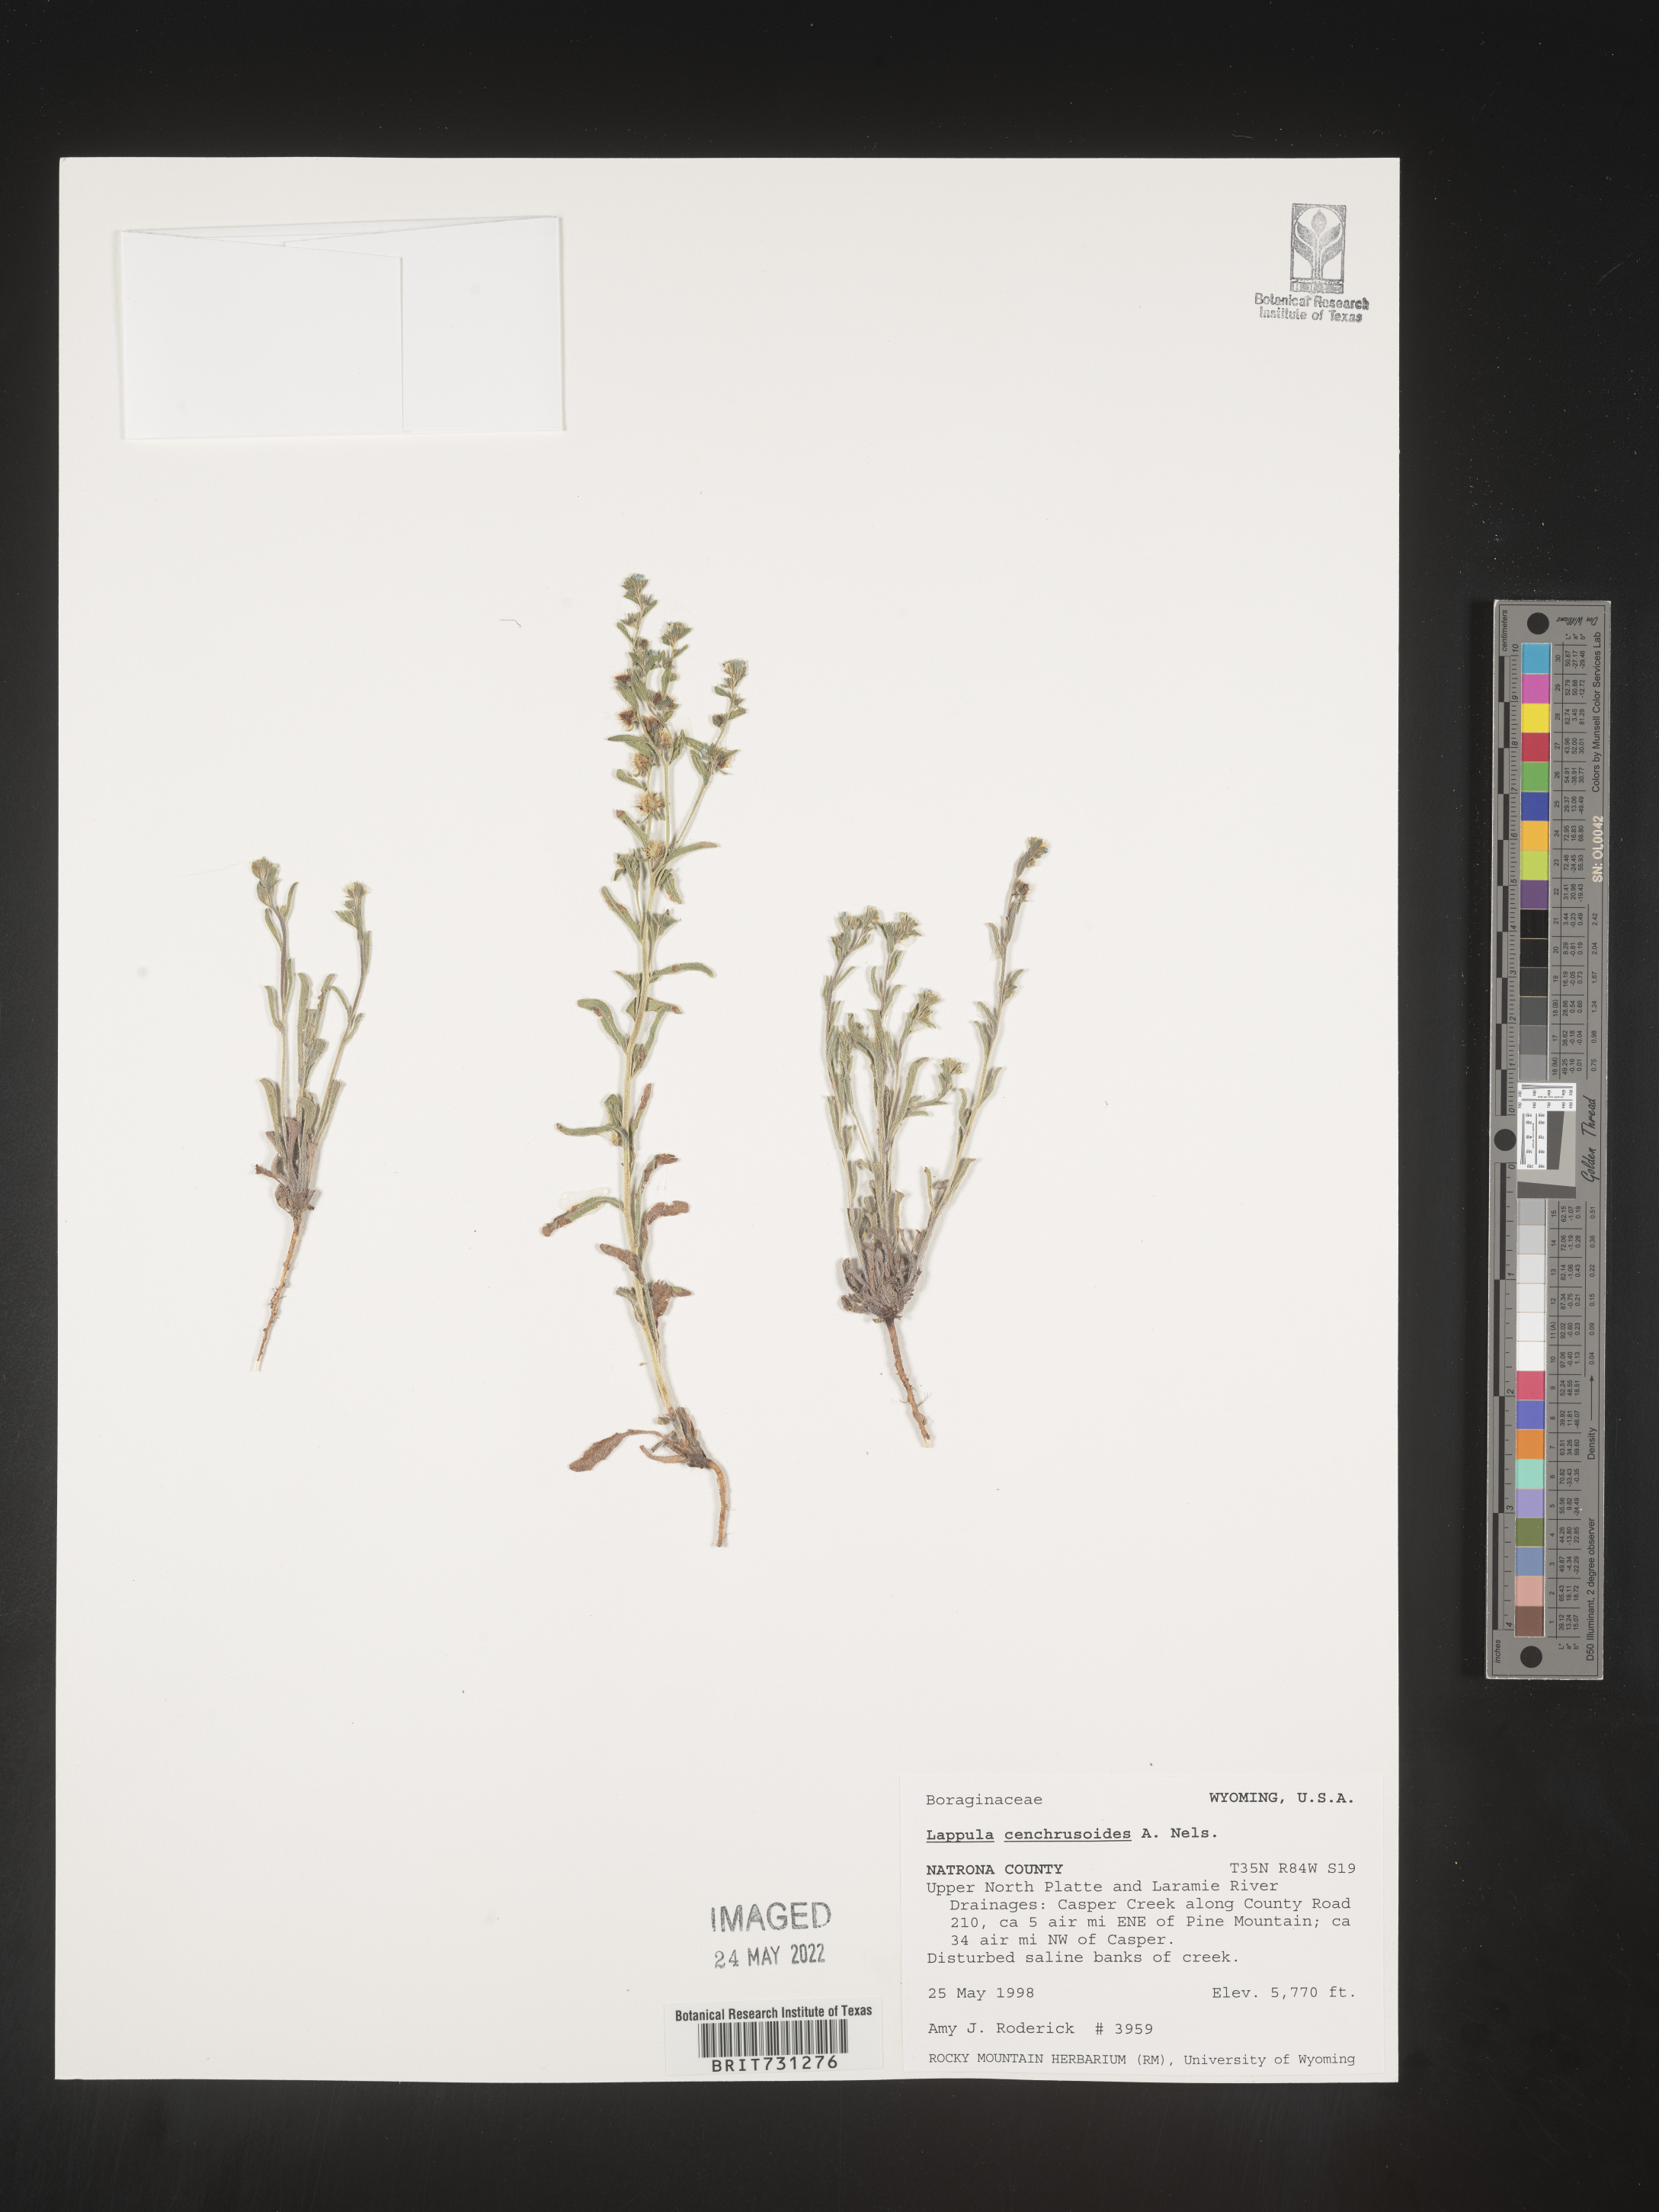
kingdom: Plantae
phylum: Tracheophyta
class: Magnoliopsida
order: Boraginales
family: Boraginaceae
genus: Lappula
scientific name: Lappula
